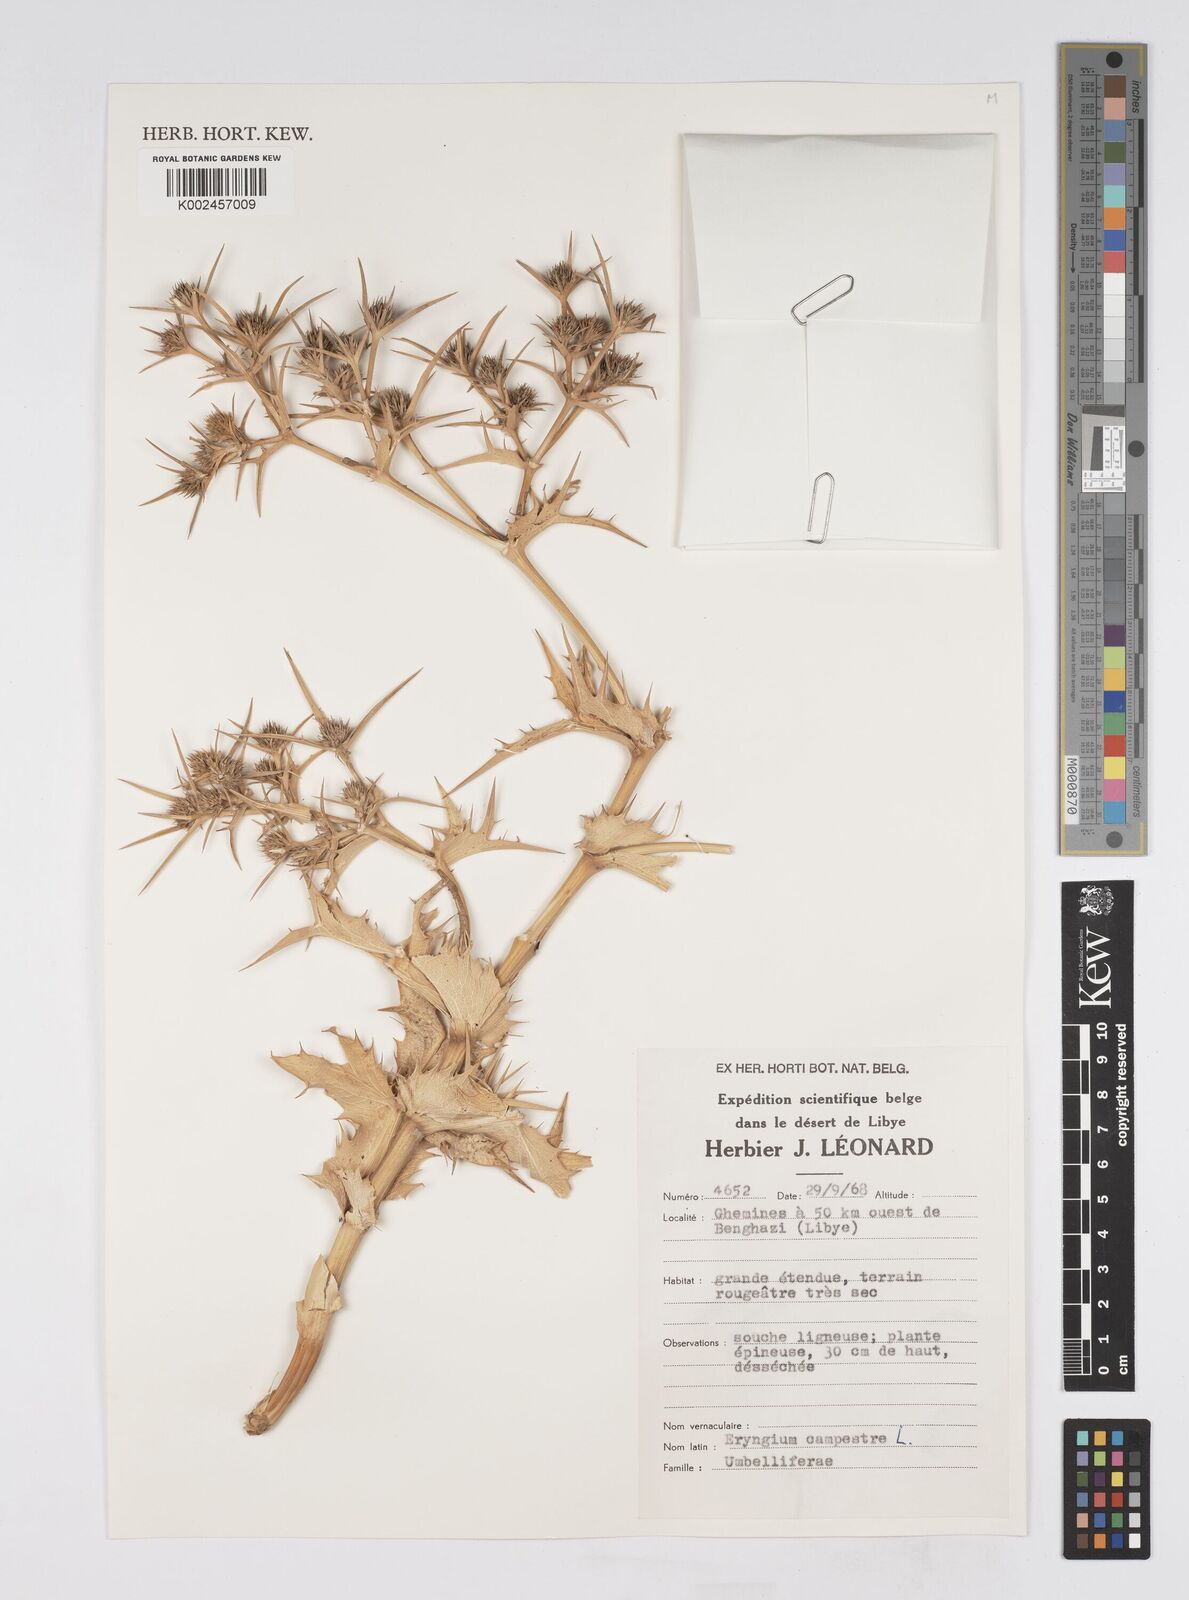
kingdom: Plantae
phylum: Tracheophyta
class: Magnoliopsida
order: Apiales
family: Apiaceae
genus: Eryngium
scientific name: Eryngium campestre
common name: Field eryngo
